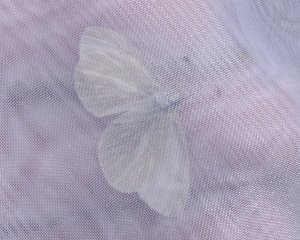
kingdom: Animalia
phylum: Arthropoda
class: Insecta
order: Lepidoptera
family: Pieridae
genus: Pieris
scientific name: Pieris virginiensis
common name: West Virginia White
